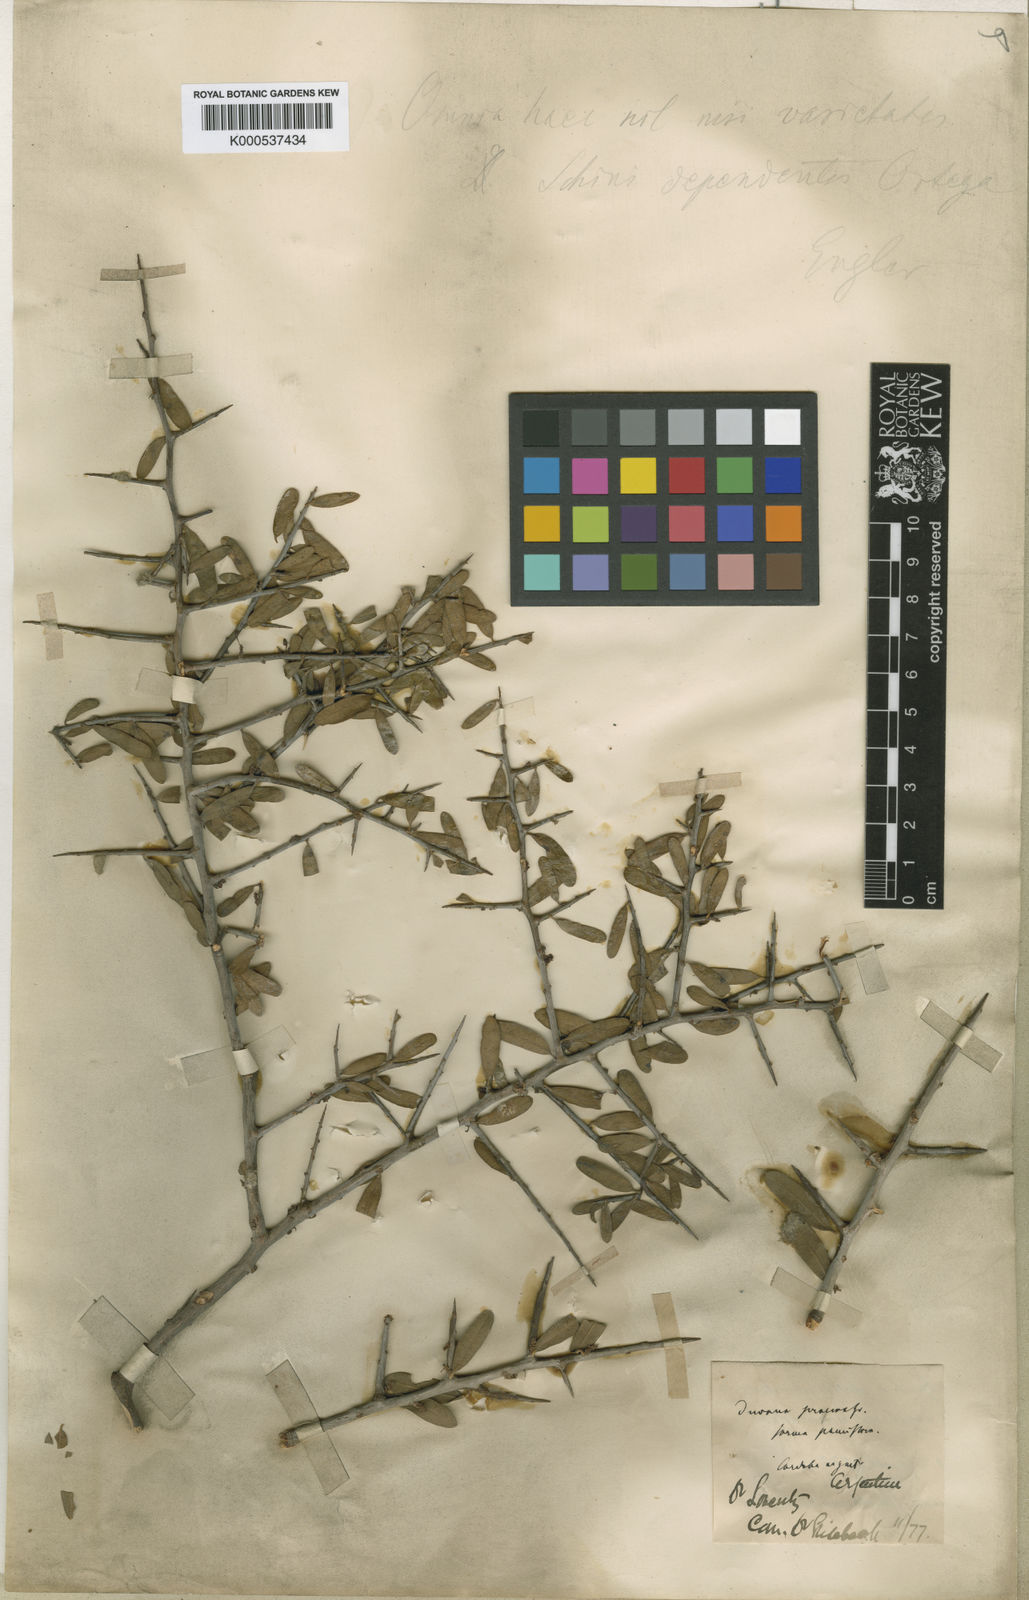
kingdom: Plantae
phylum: Tracheophyta
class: Magnoliopsida
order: Sapindales
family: Anacardiaceae
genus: Schinus
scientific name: Schinus polygama
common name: Hardee peppertree
